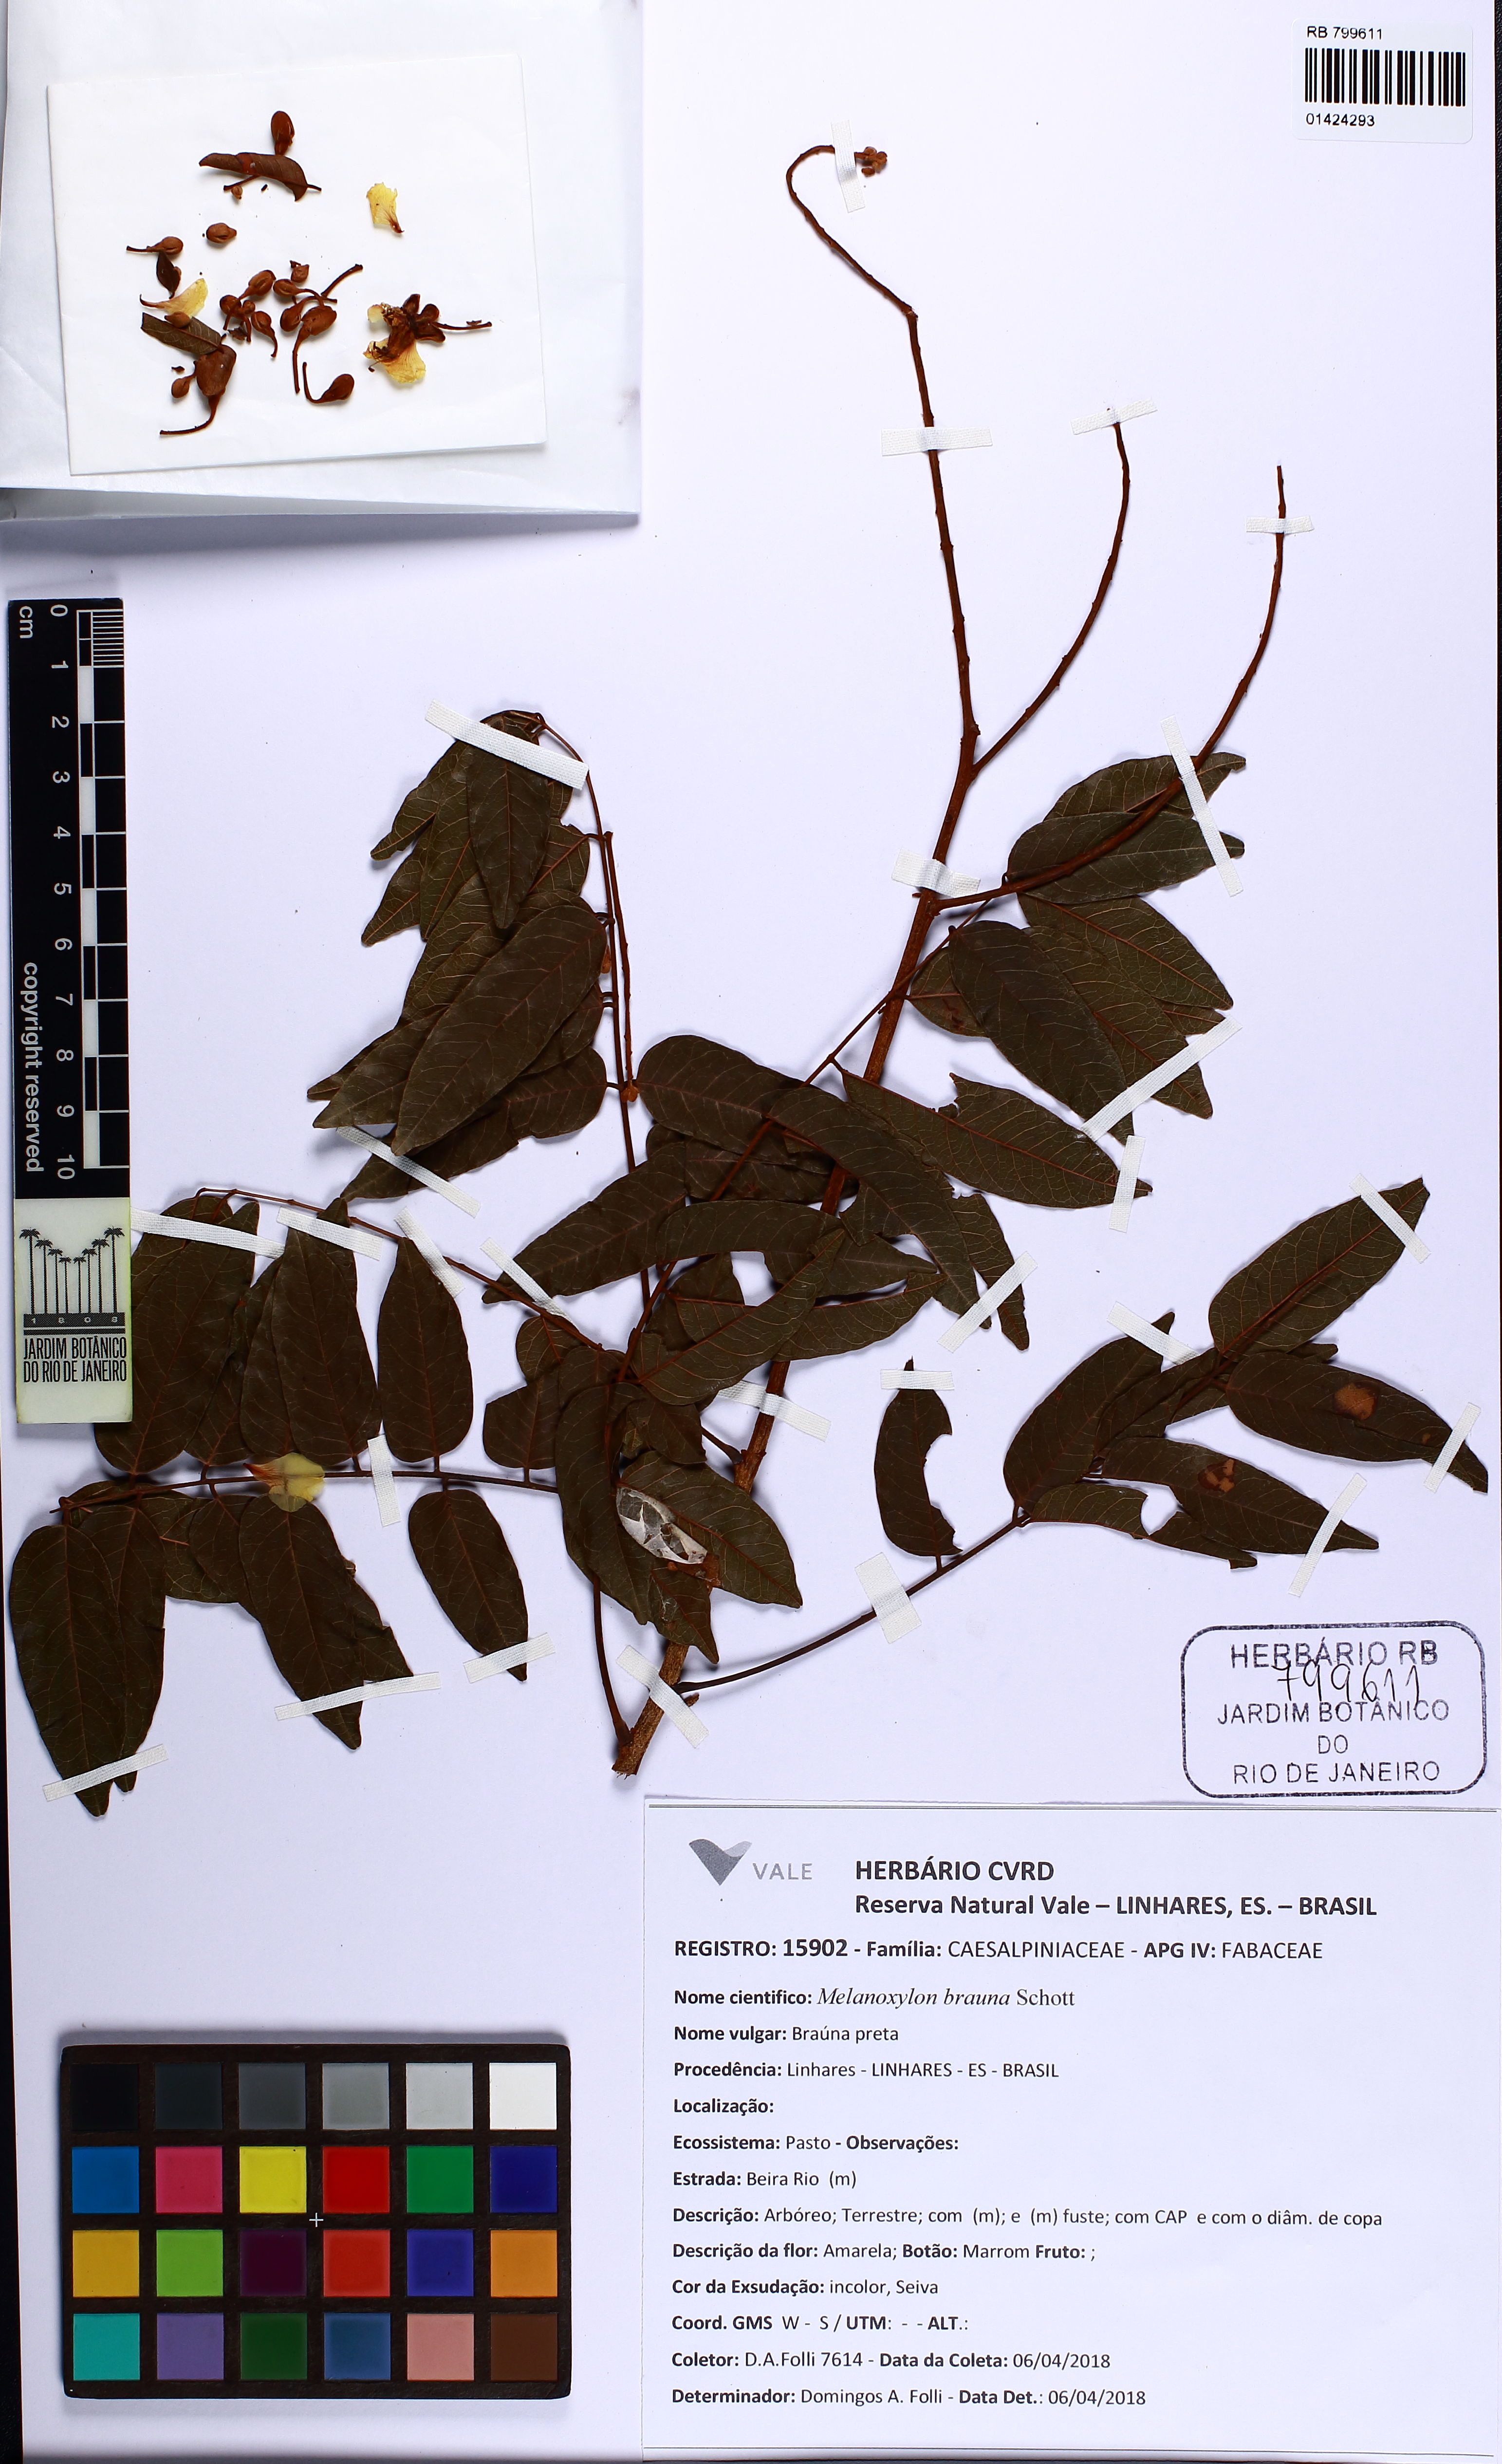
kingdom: Plantae
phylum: Tracheophyta
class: Magnoliopsida
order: Fabales
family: Fabaceae
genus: Melanoxylon
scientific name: Melanoxylon brauna
